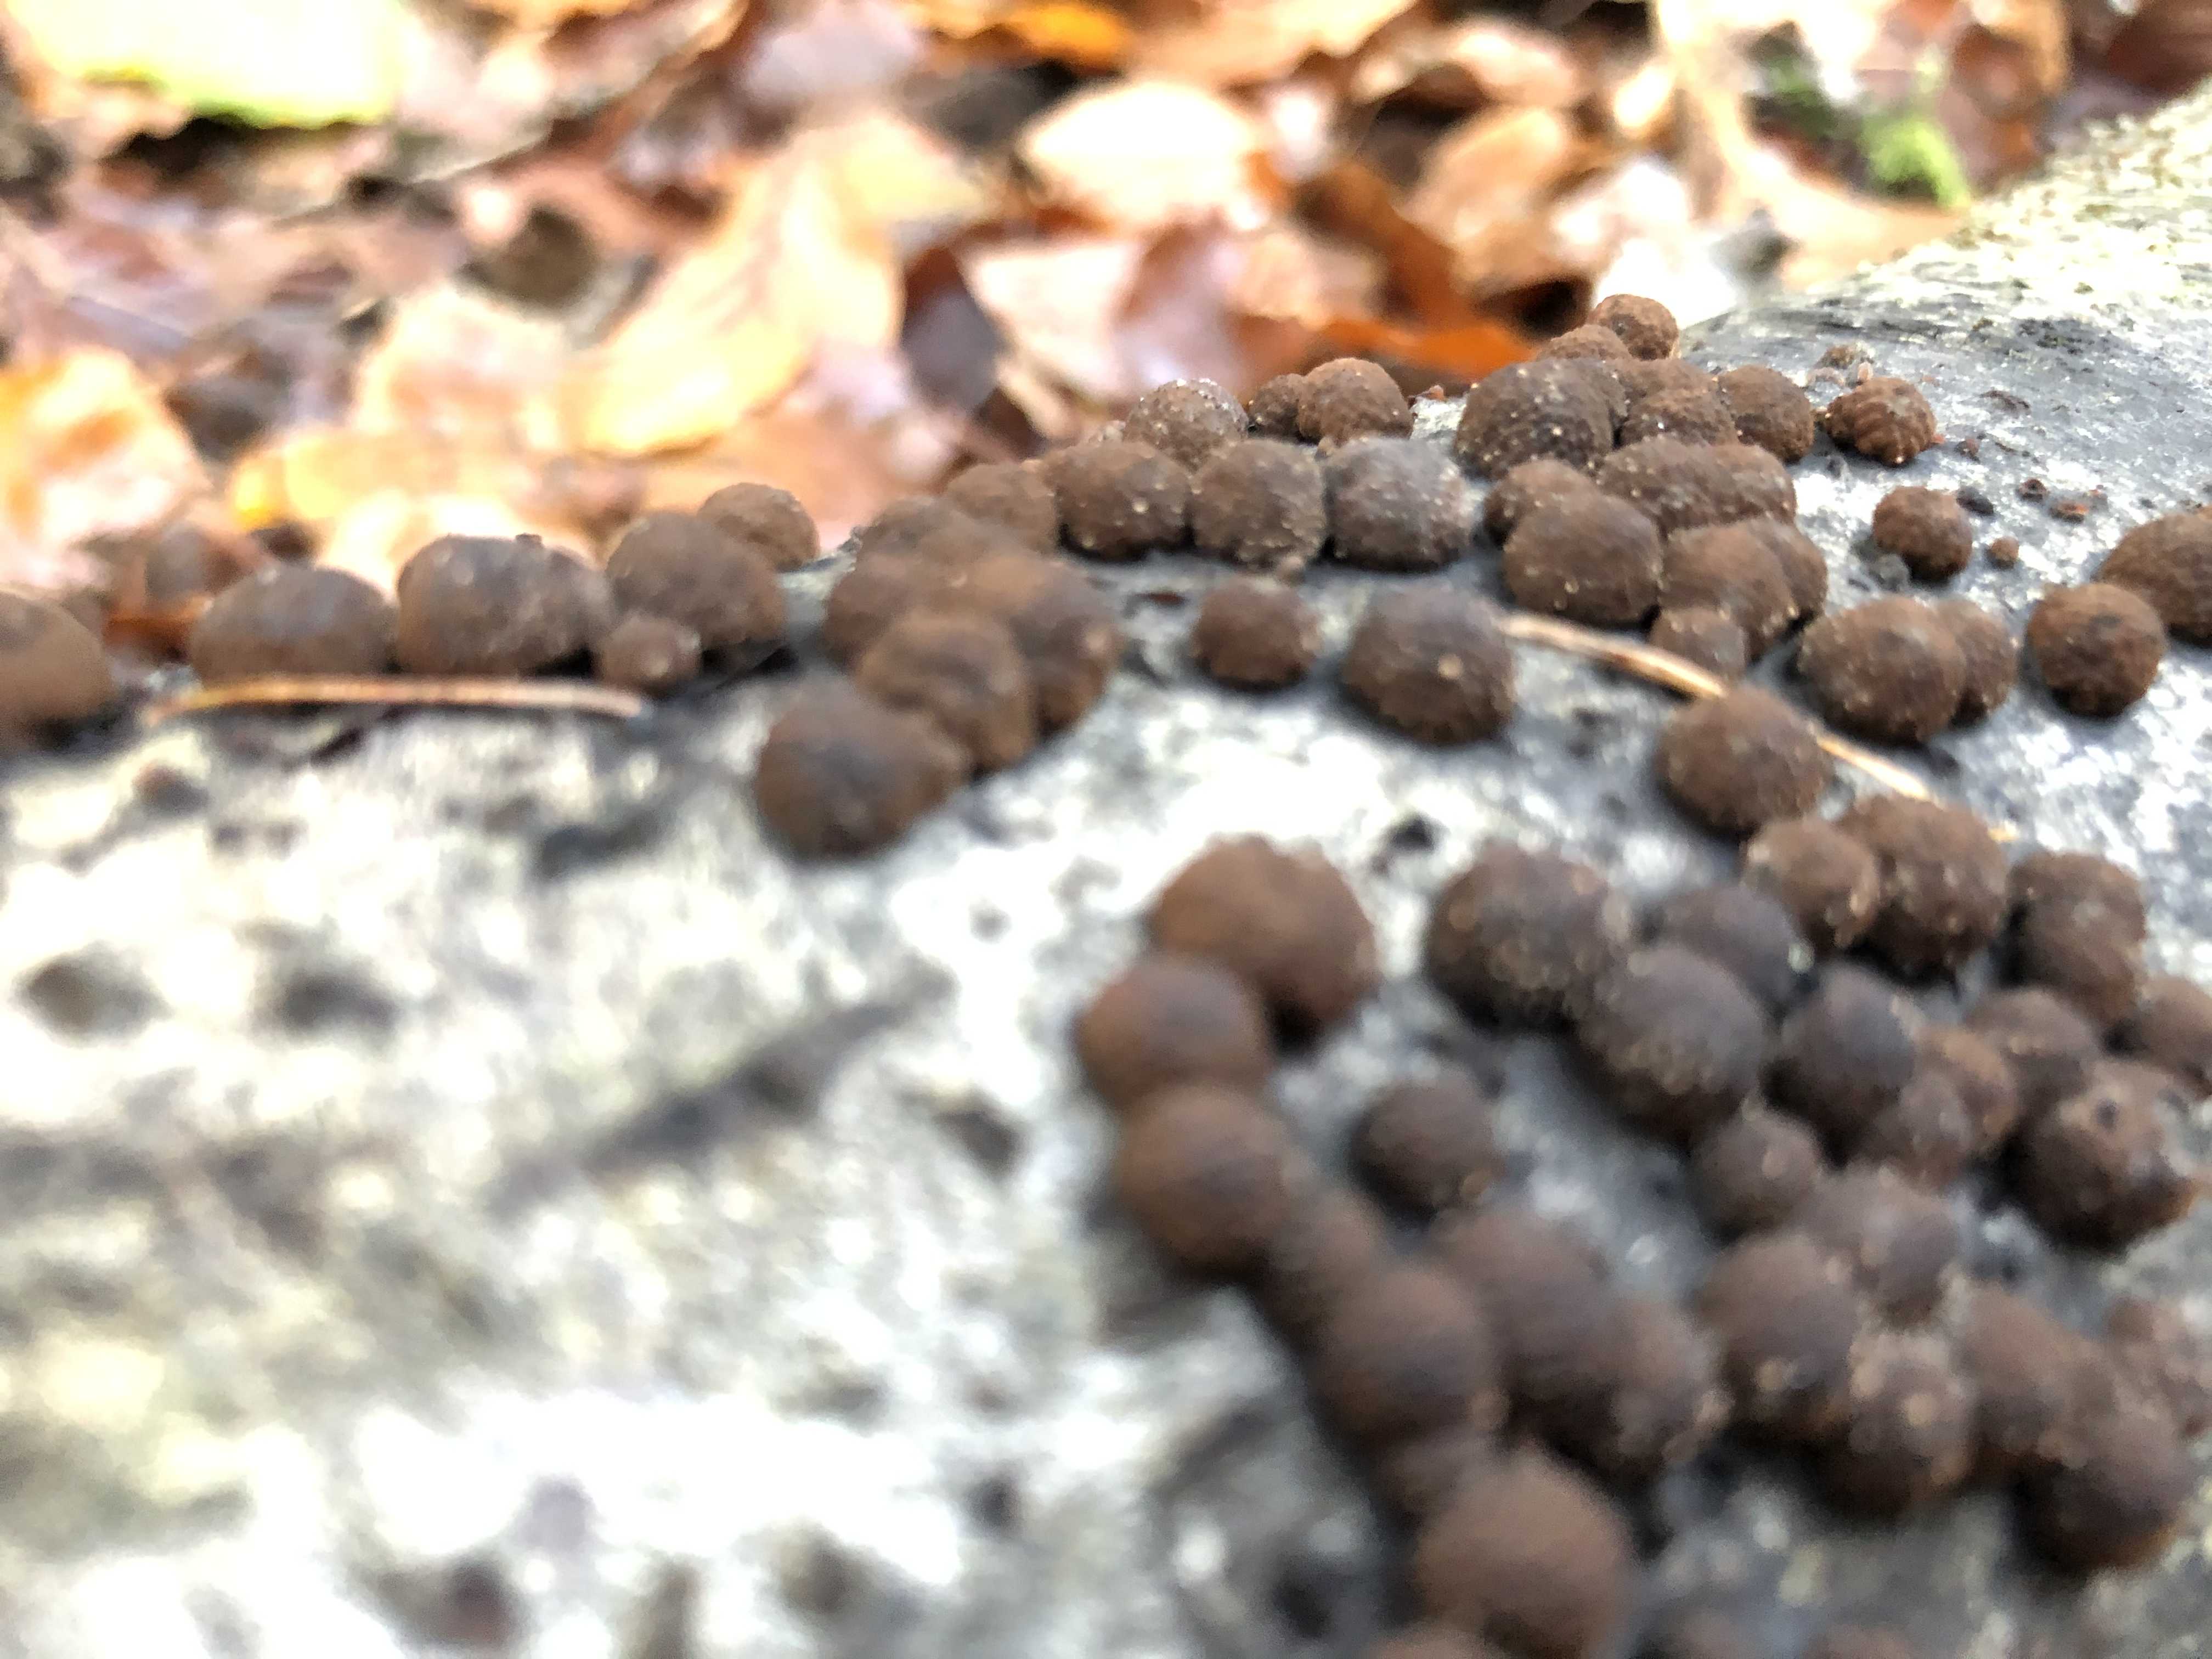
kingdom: Fungi
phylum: Ascomycota
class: Sordariomycetes
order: Xylariales
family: Hypoxylaceae
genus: Hypoxylon
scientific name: Hypoxylon fragiforme
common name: kuljordbær
